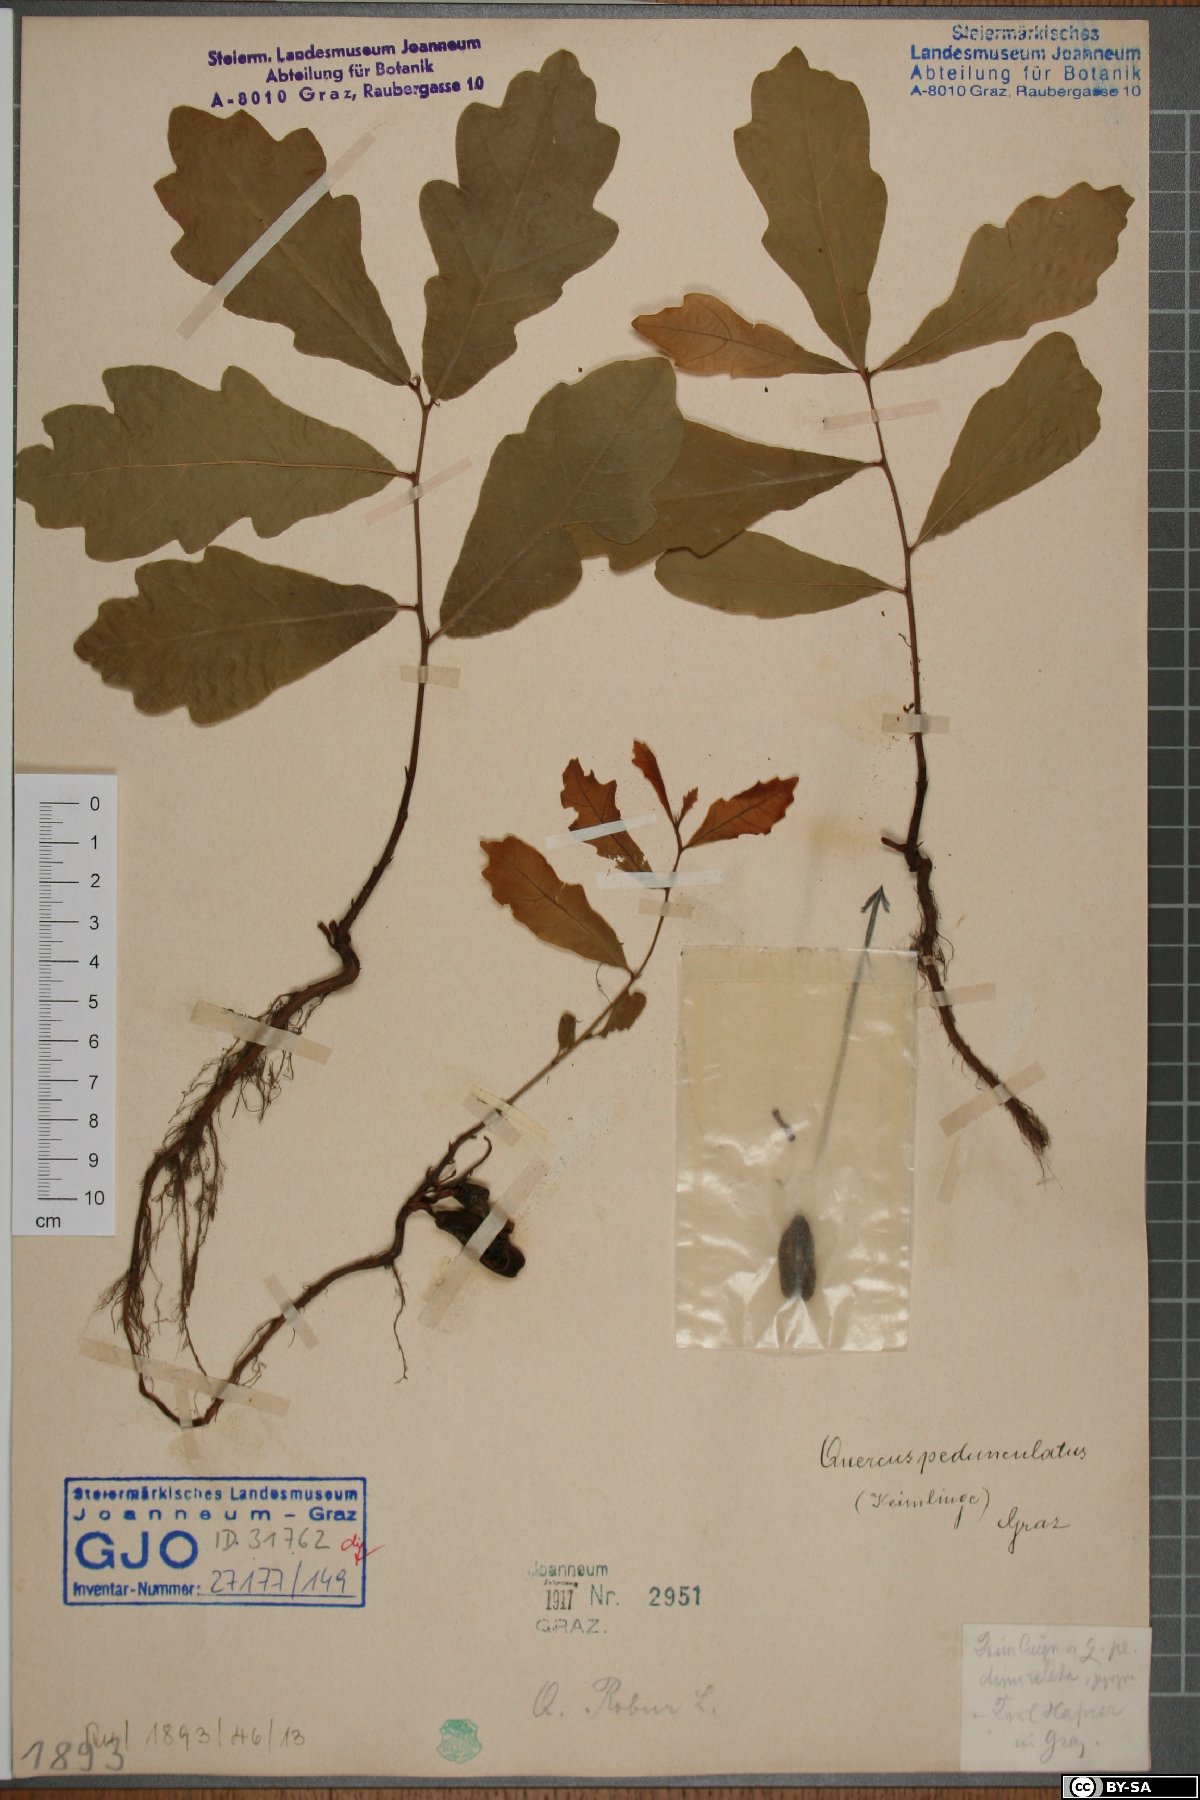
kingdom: Plantae
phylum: Tracheophyta
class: Magnoliopsida
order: Fagales
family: Fagaceae
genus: Quercus
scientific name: Quercus robur
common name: Pedunculate oak
